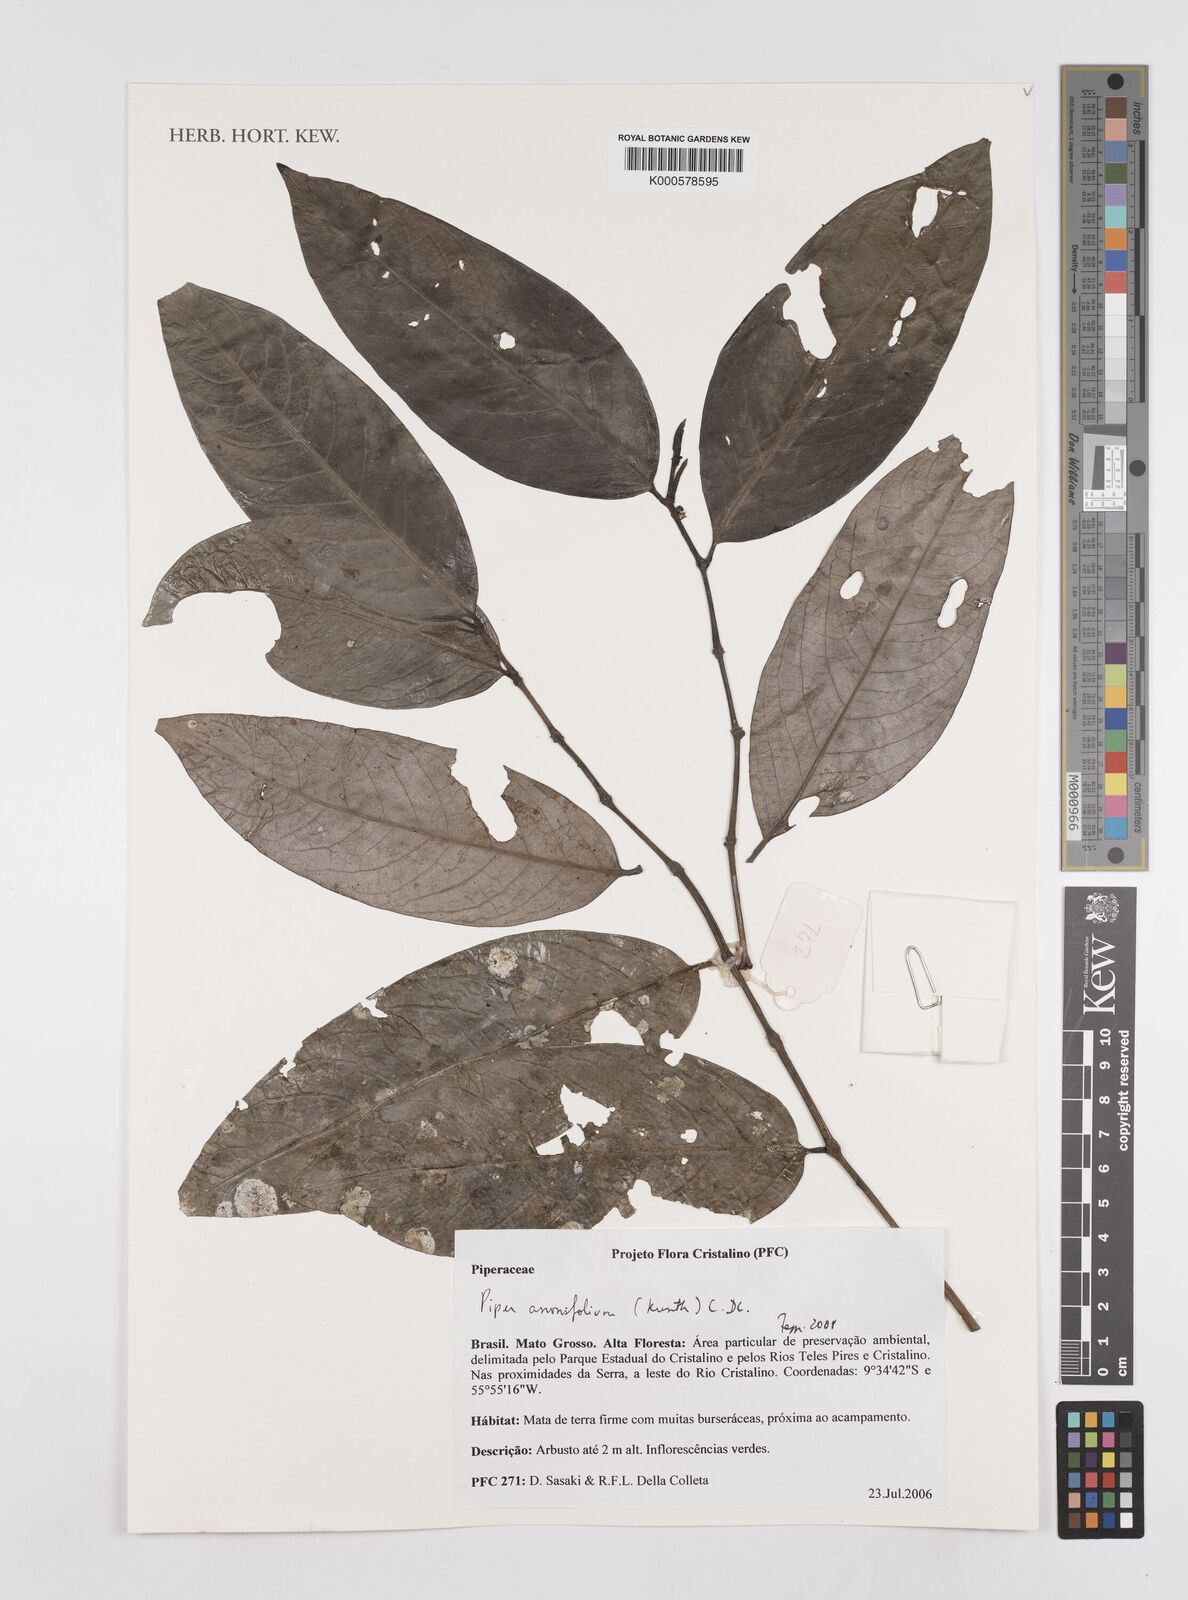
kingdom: Plantae
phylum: Tracheophyta
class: Magnoliopsida
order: Piperales
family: Piperaceae
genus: Piper
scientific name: Piper
